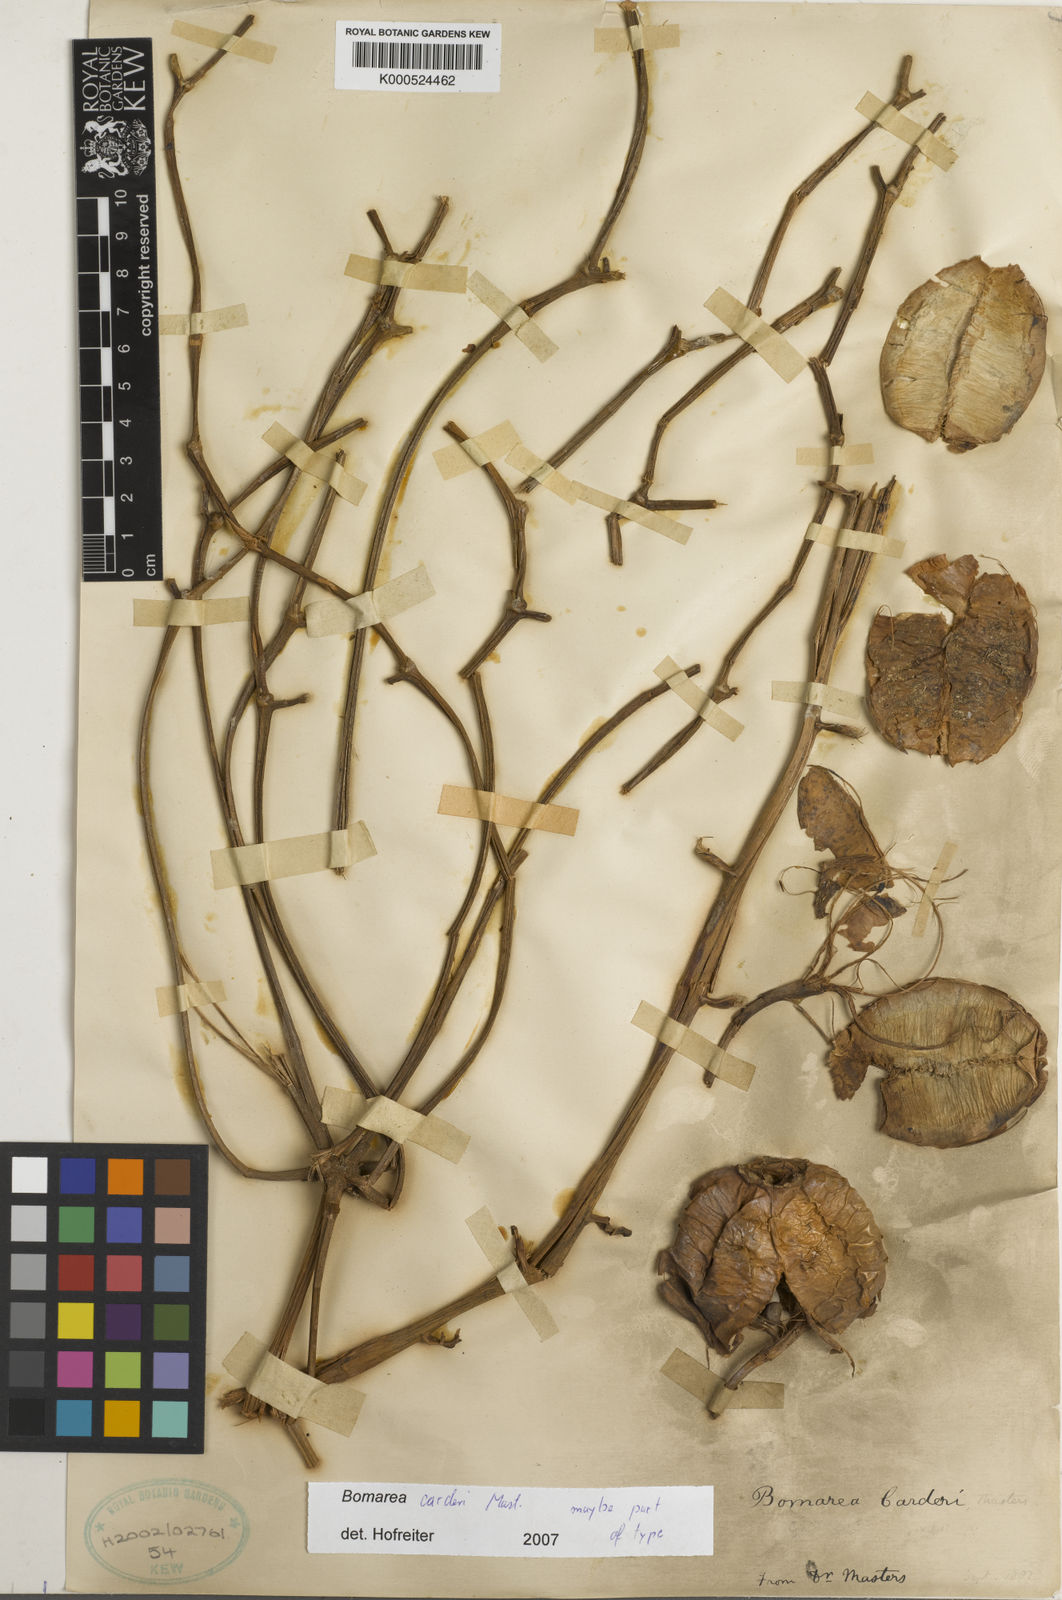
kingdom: Plantae
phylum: Tracheophyta
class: Liliopsida
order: Liliales
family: Alstroemeriaceae
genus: Bomarea
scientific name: Bomarea carderi
